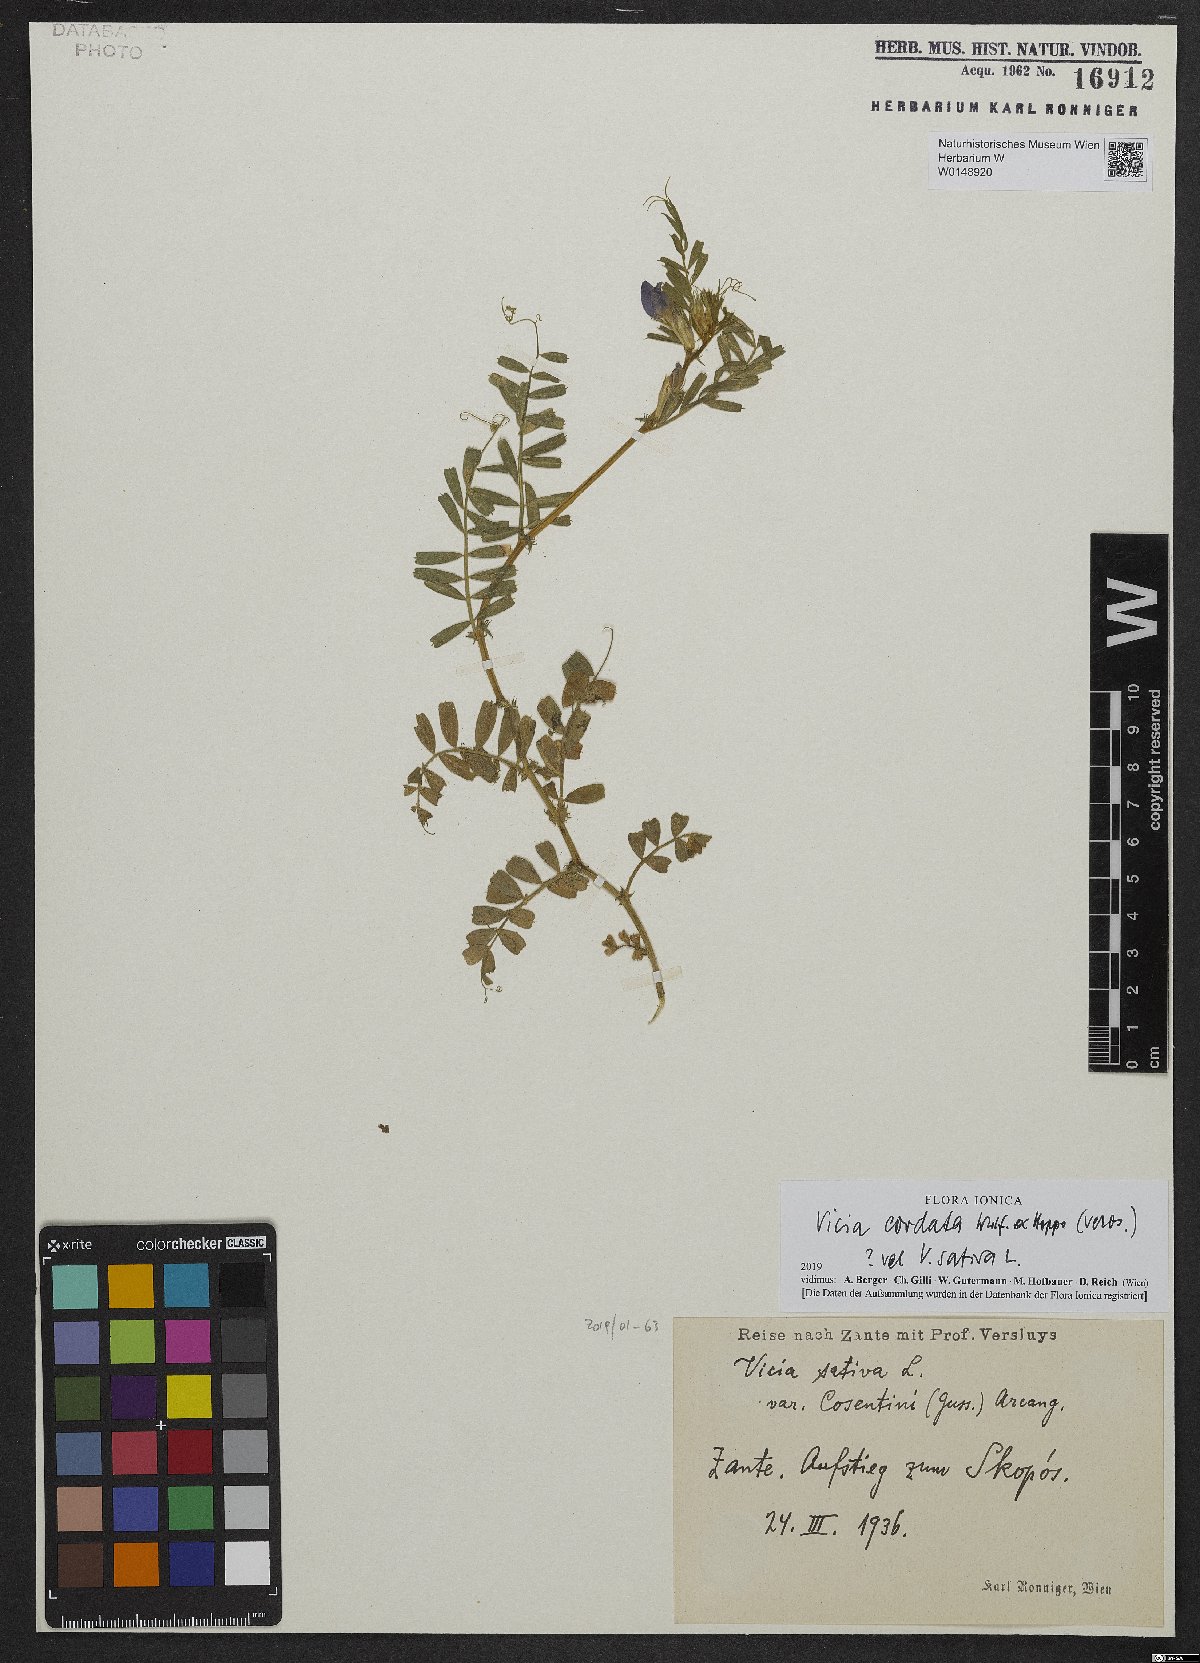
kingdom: Plantae
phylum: Tracheophyta
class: Magnoliopsida
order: Fabales
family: Fabaceae
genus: Vicia
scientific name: Vicia sativa
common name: Garden vetch
